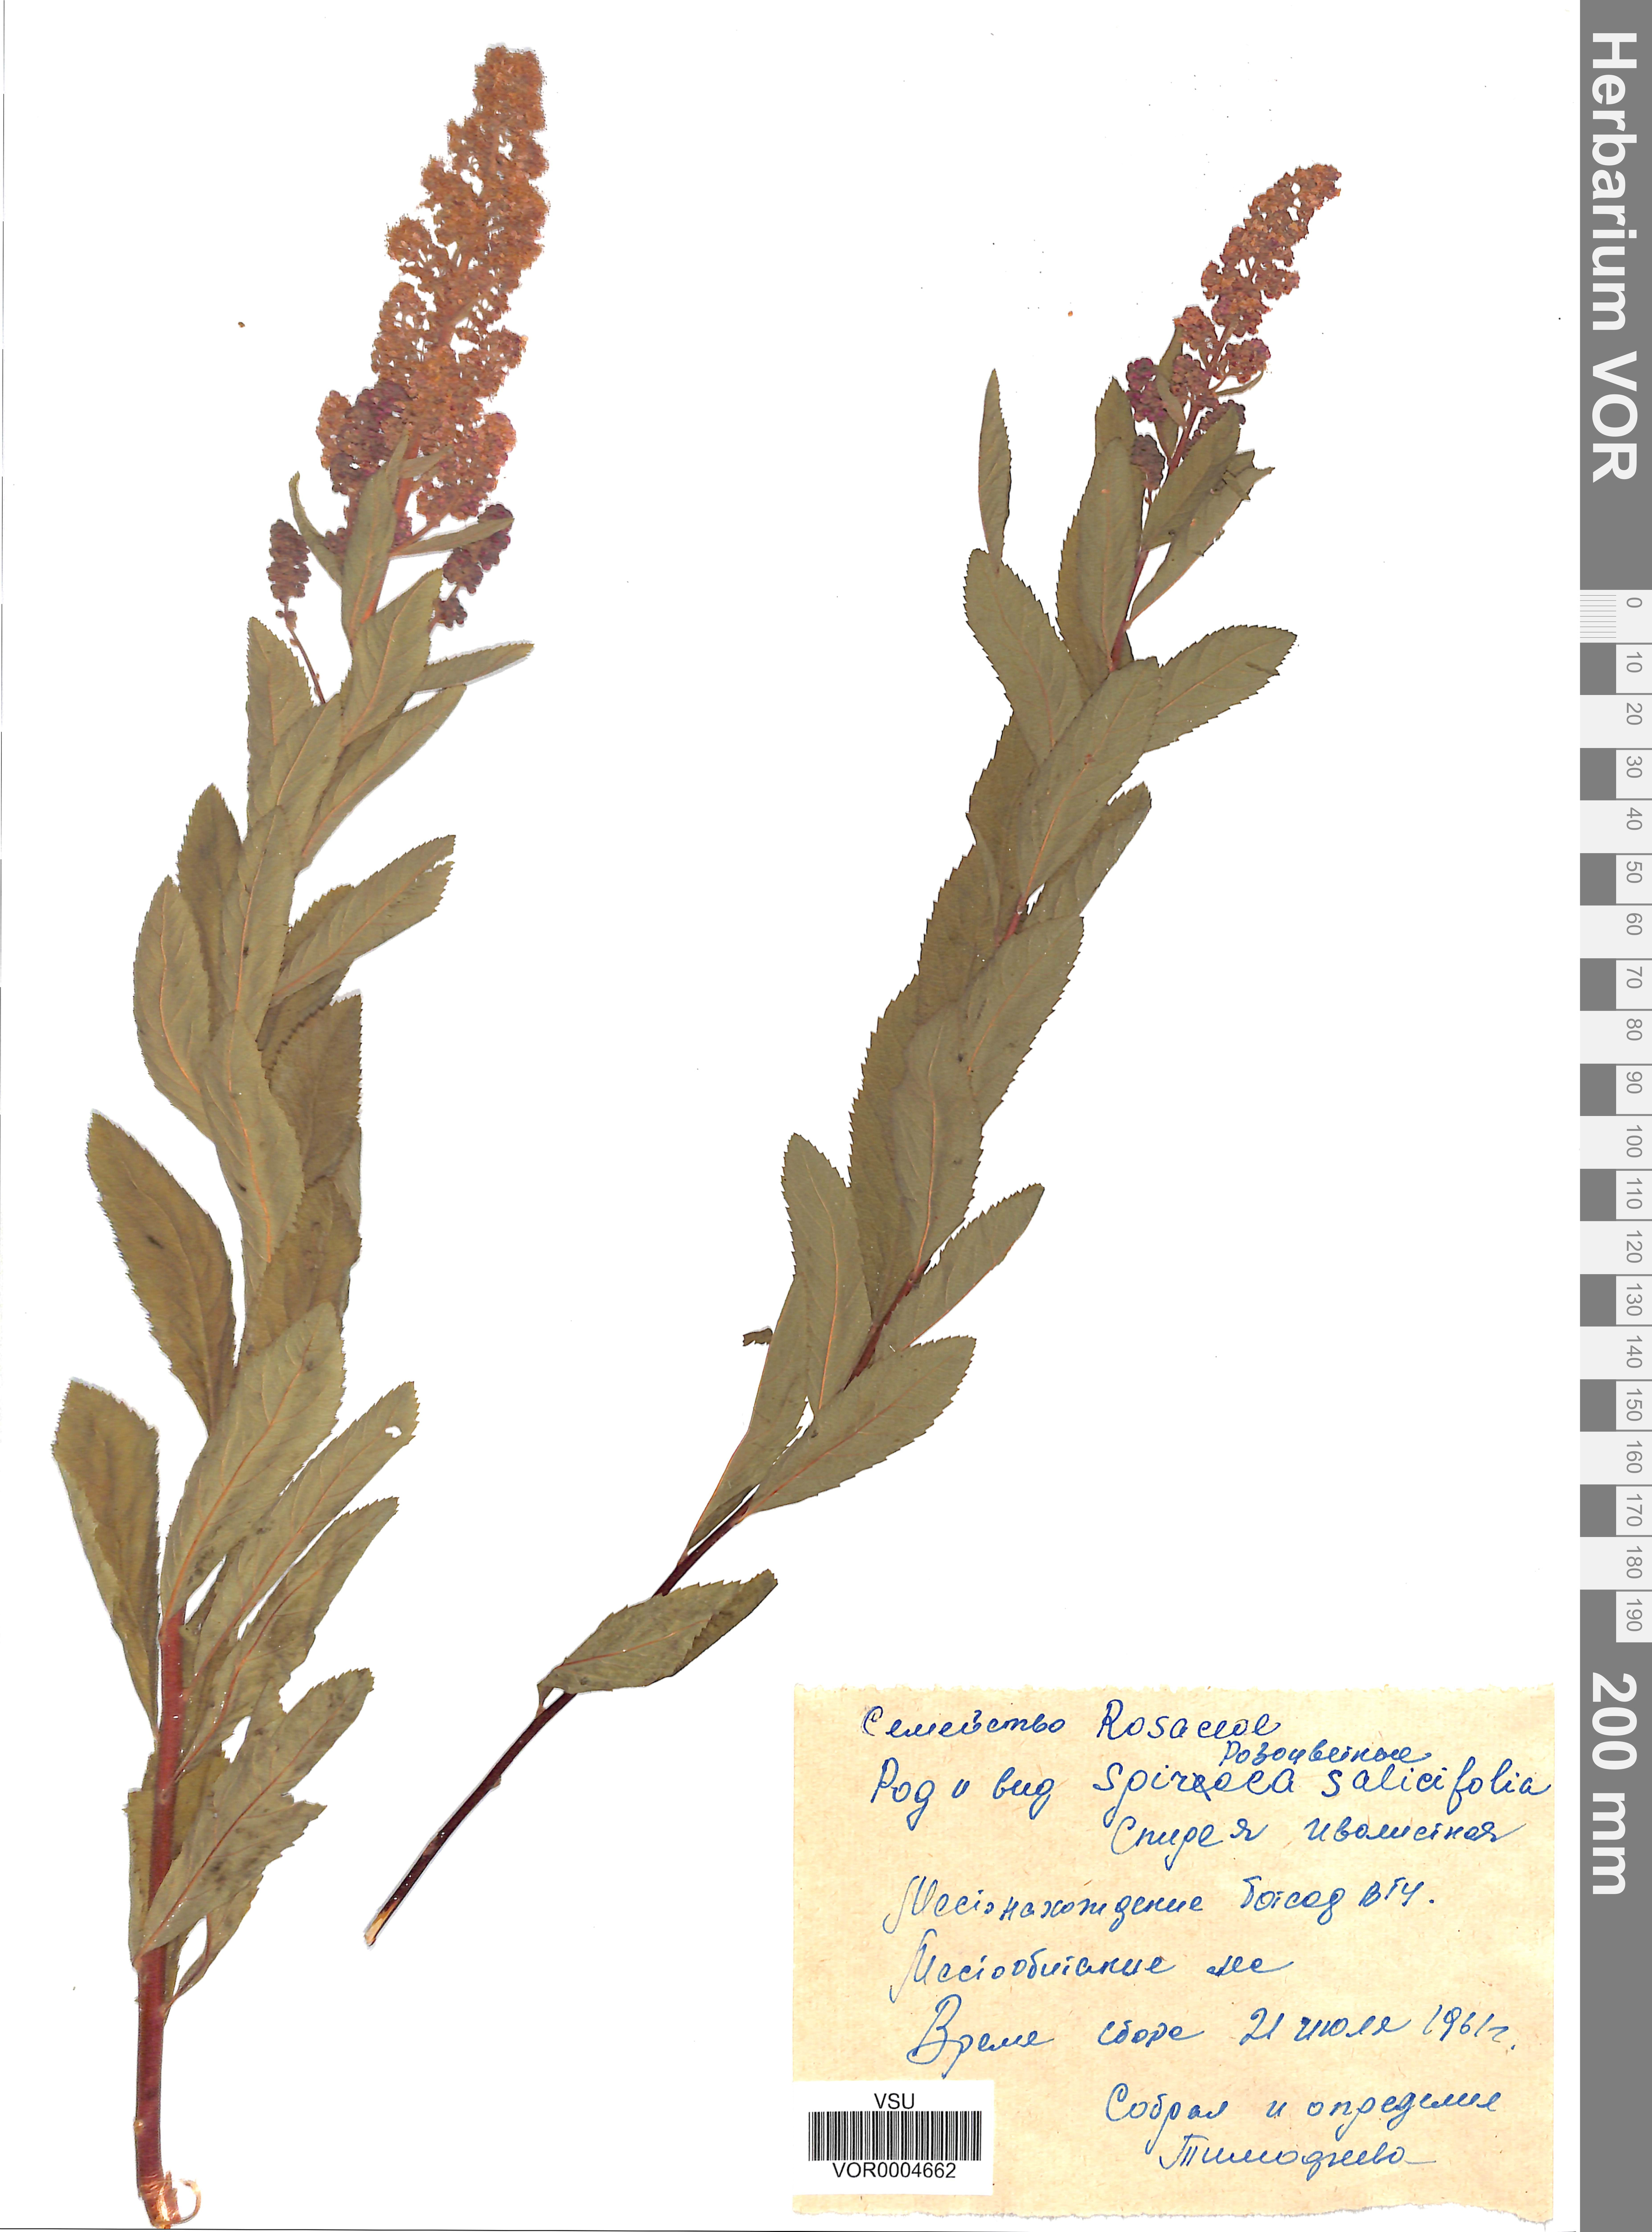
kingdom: Plantae
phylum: Tracheophyta
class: Magnoliopsida
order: Rosales
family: Rosaceae
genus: Spiraea
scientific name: Spiraea salicifolia
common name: Bridewort
